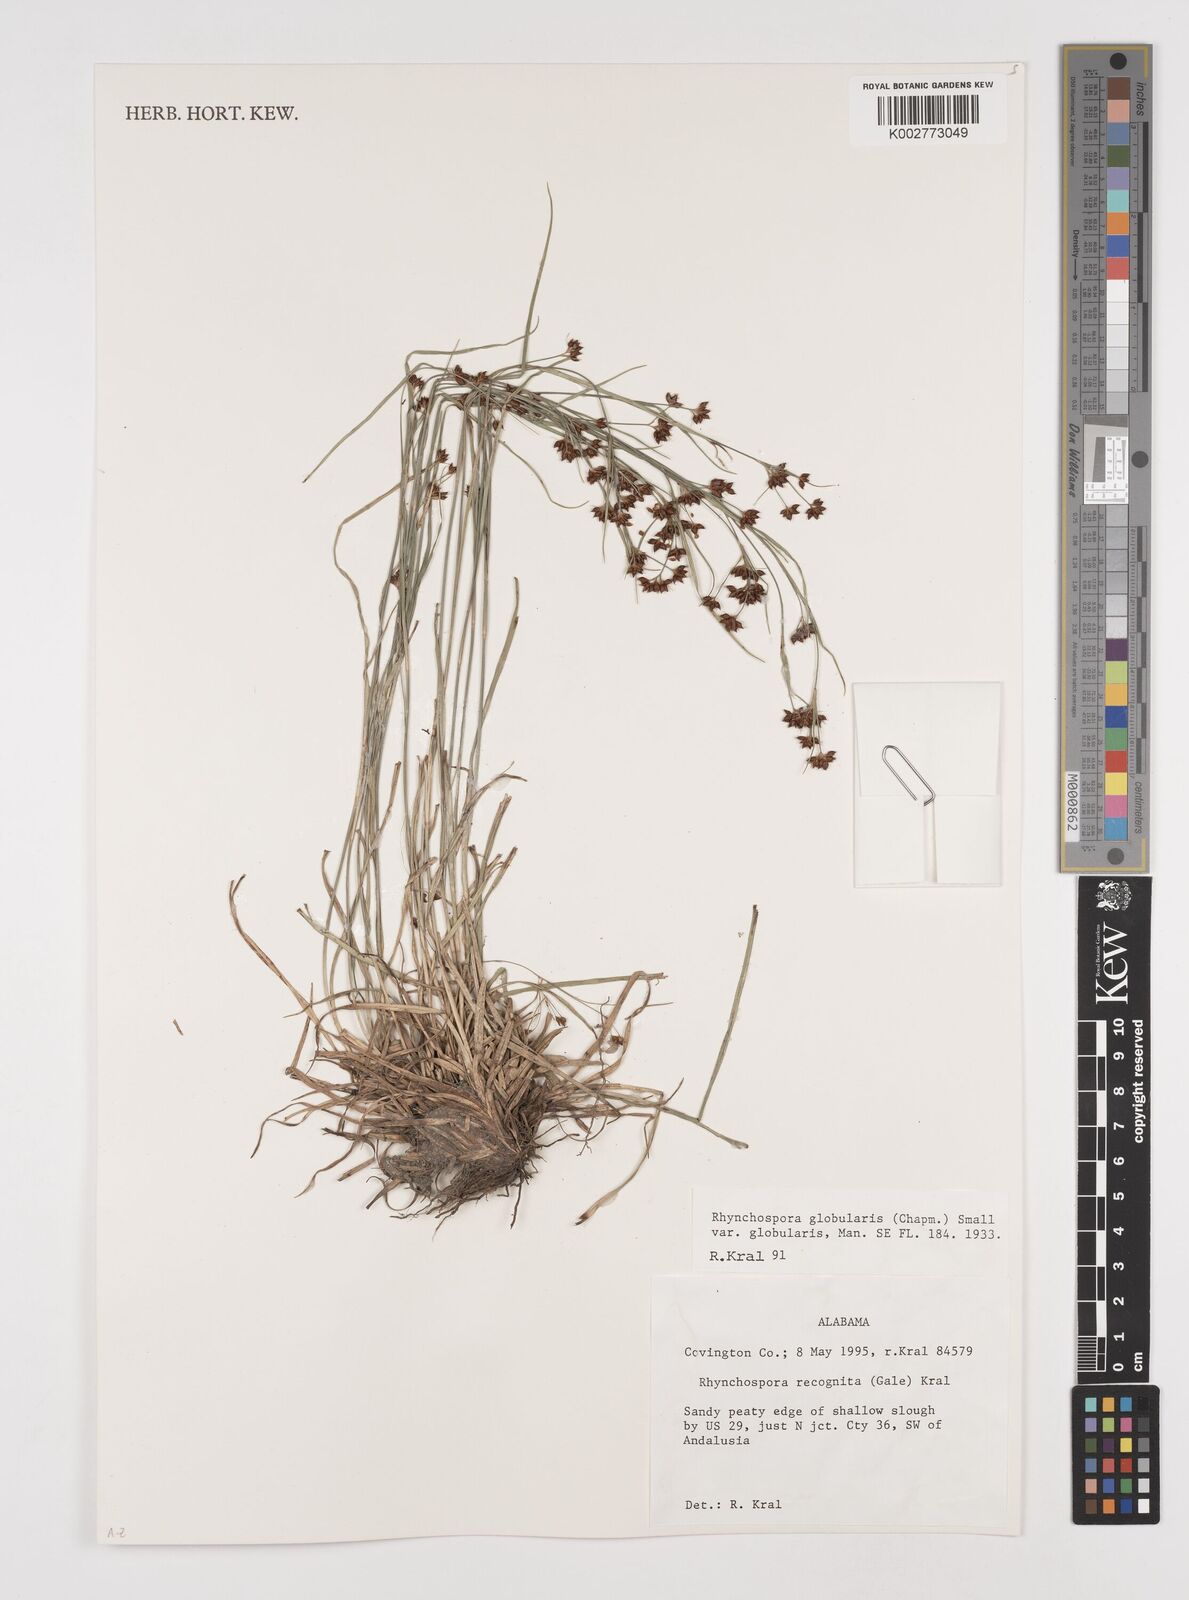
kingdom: Plantae
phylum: Tracheophyta
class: Liliopsida
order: Poales
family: Cyperaceae
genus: Rhynchospora
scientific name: Rhynchospora globularis
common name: Globe beaksedge
